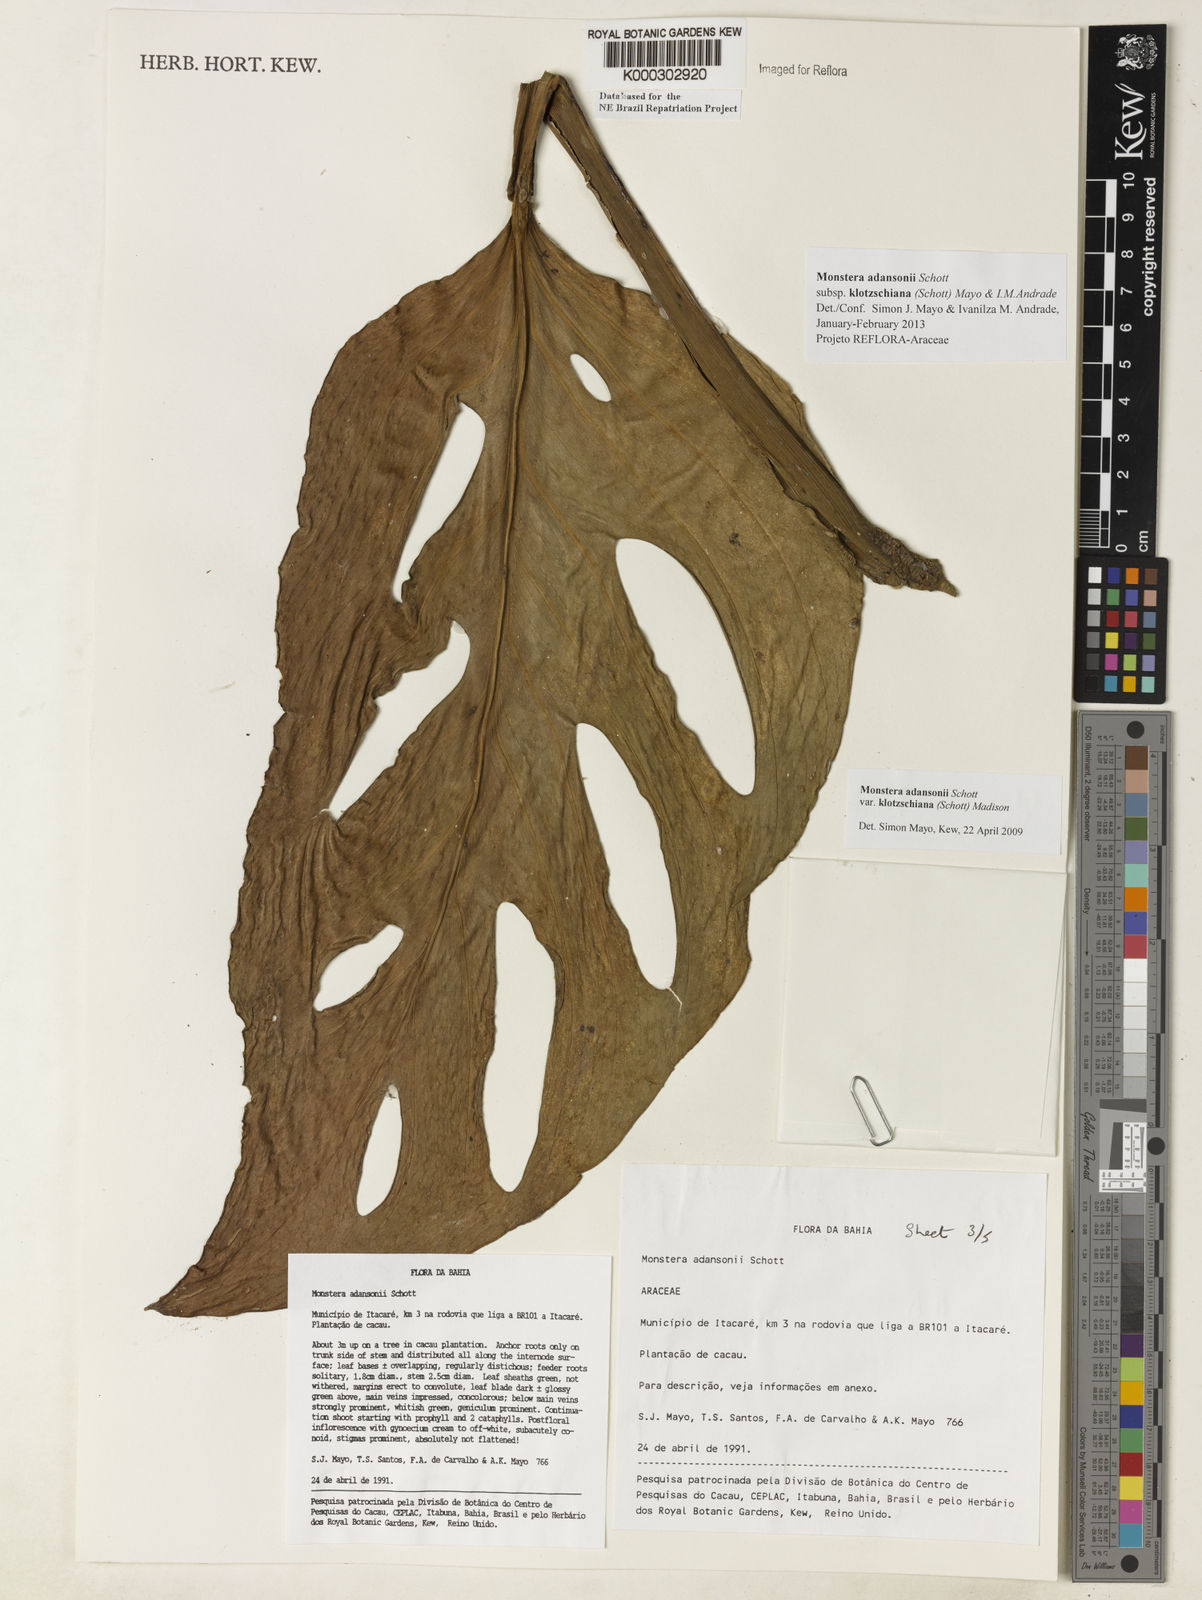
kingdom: Plantae
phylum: Tracheophyta
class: Liliopsida
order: Alismatales
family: Araceae
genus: Monstera
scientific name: Monstera adansonii
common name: Tarovine
